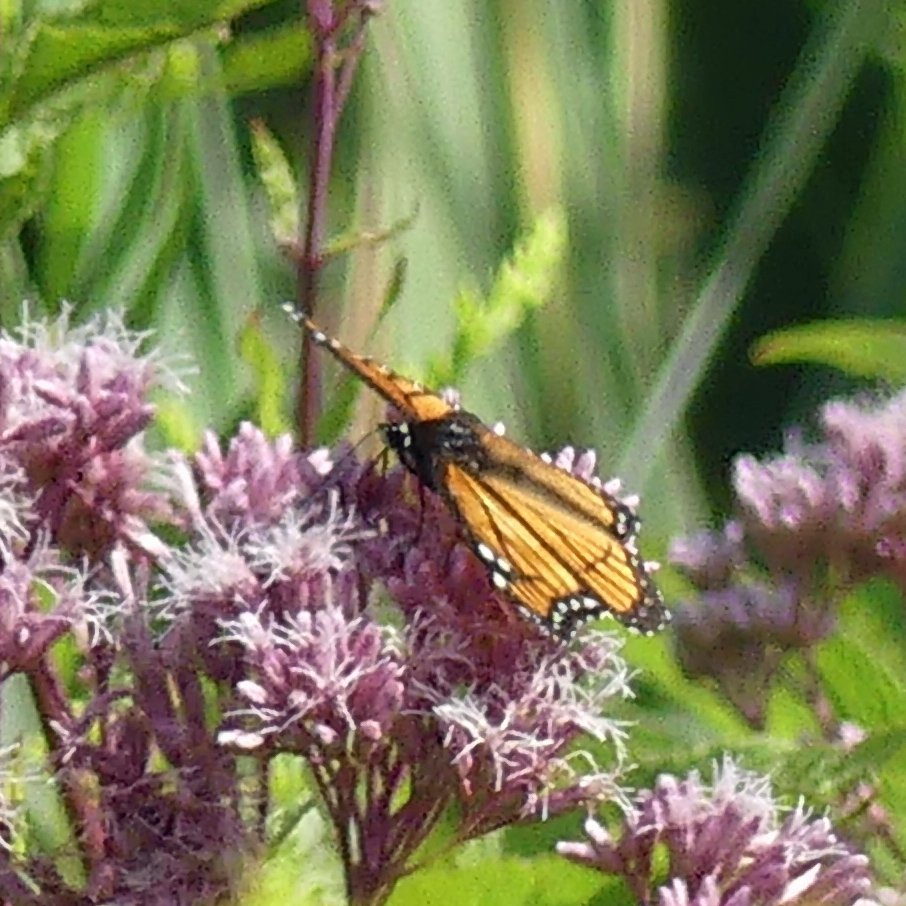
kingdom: Animalia
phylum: Arthropoda
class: Insecta
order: Lepidoptera
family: Nymphalidae
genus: Limenitis
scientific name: Limenitis archippus
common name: Viceroy
